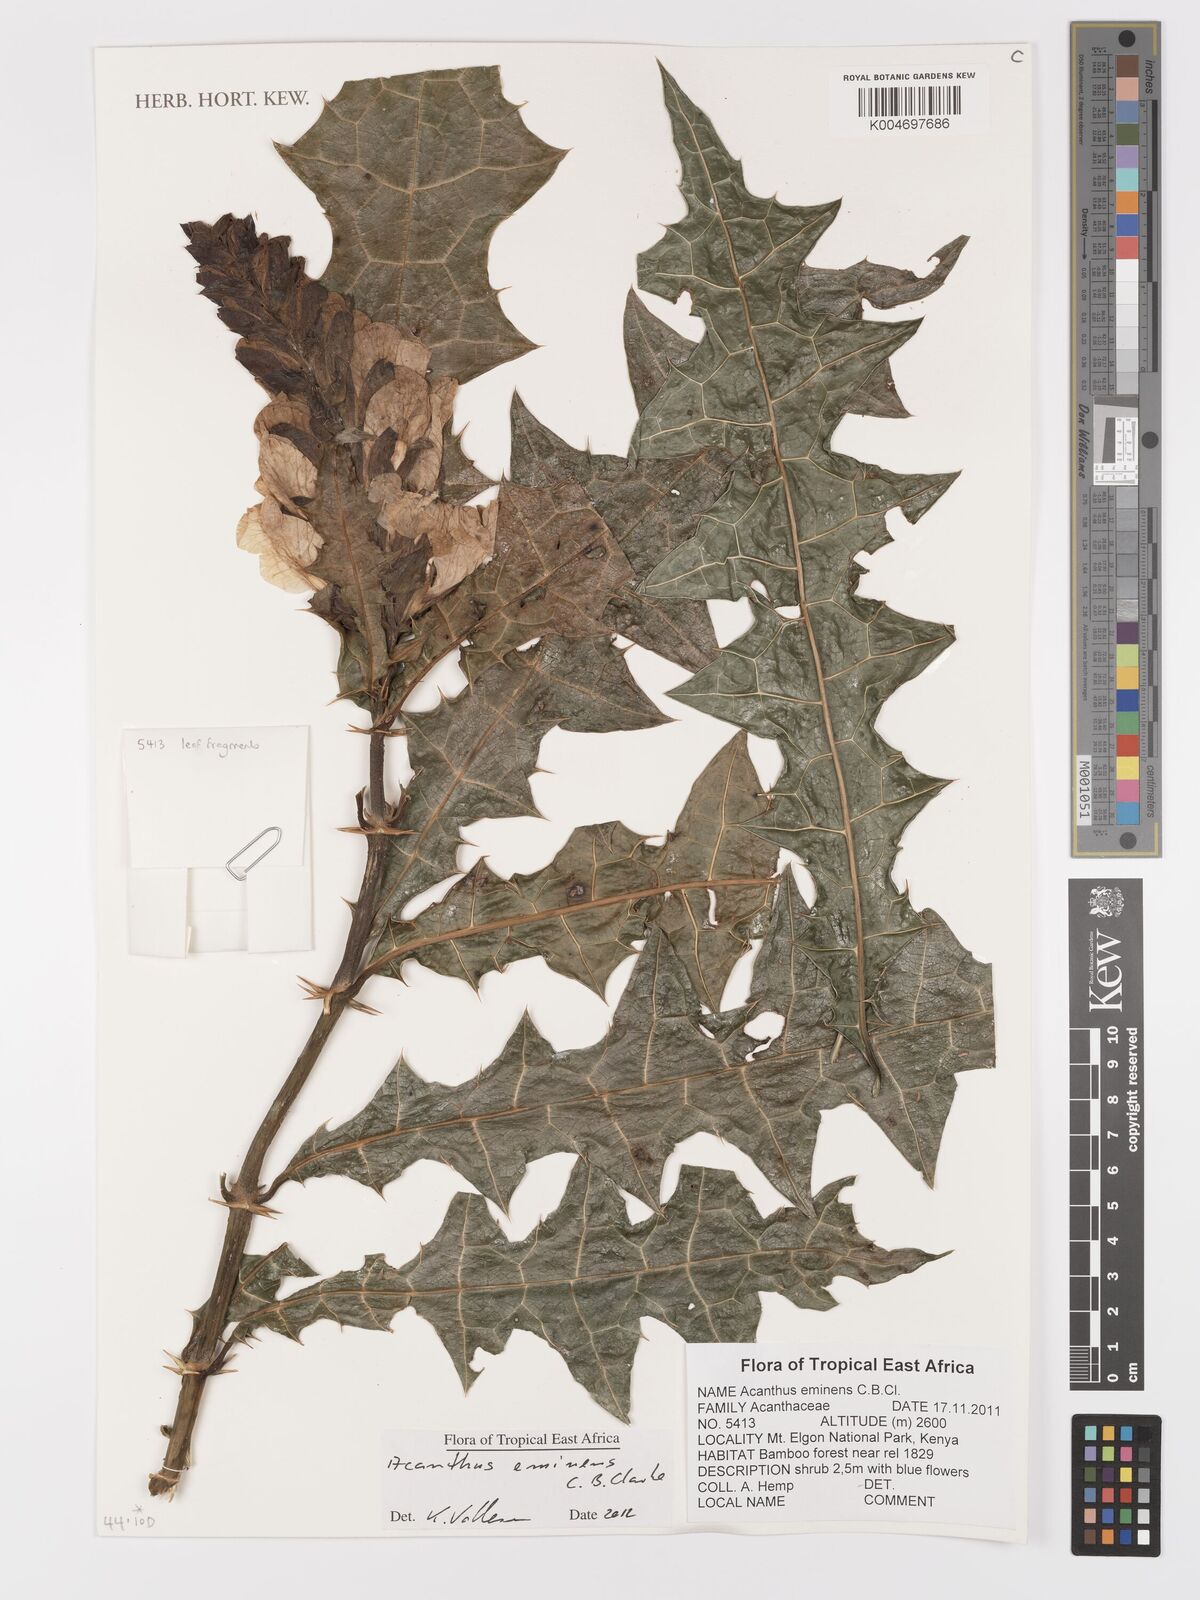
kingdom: Plantae
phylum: Tracheophyta
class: Magnoliopsida
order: Lamiales
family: Acanthaceae
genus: Acanthus
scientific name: Acanthus eminens
